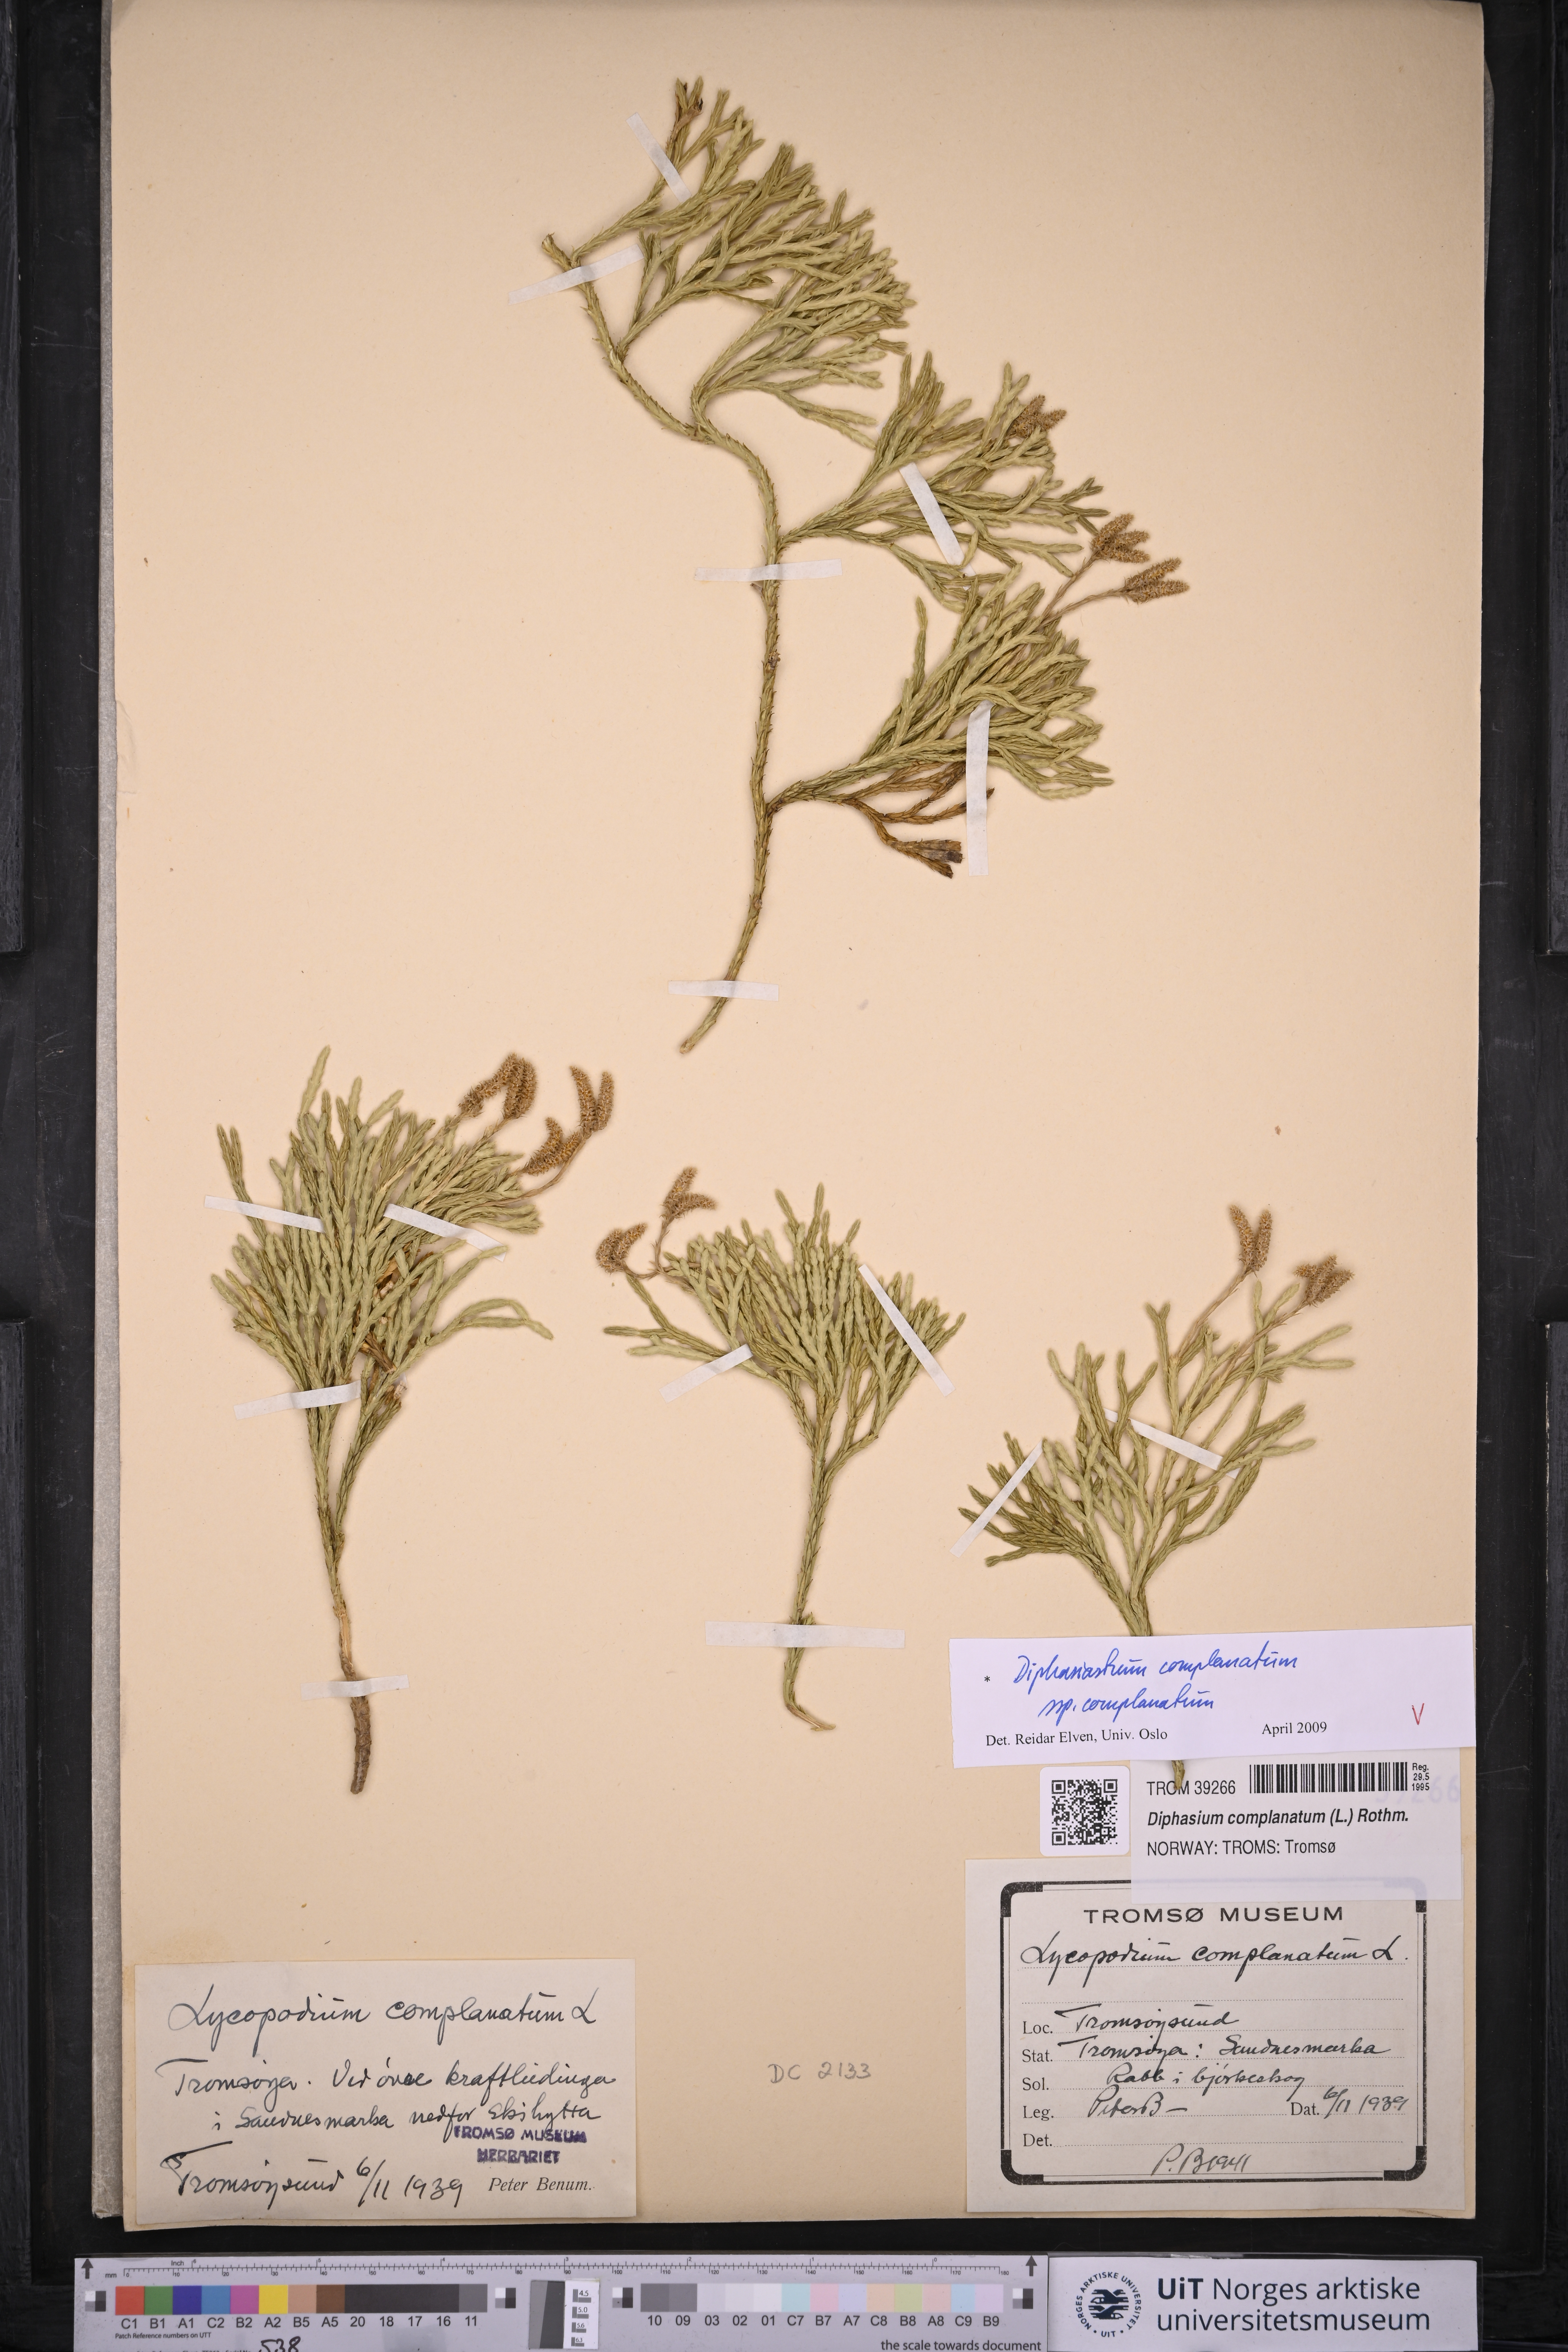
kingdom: Plantae
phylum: Tracheophyta
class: Lycopodiopsida
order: Lycopodiales
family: Lycopodiaceae
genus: Diphasiastrum
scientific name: Diphasiastrum complanatum
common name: Northern running-pine
